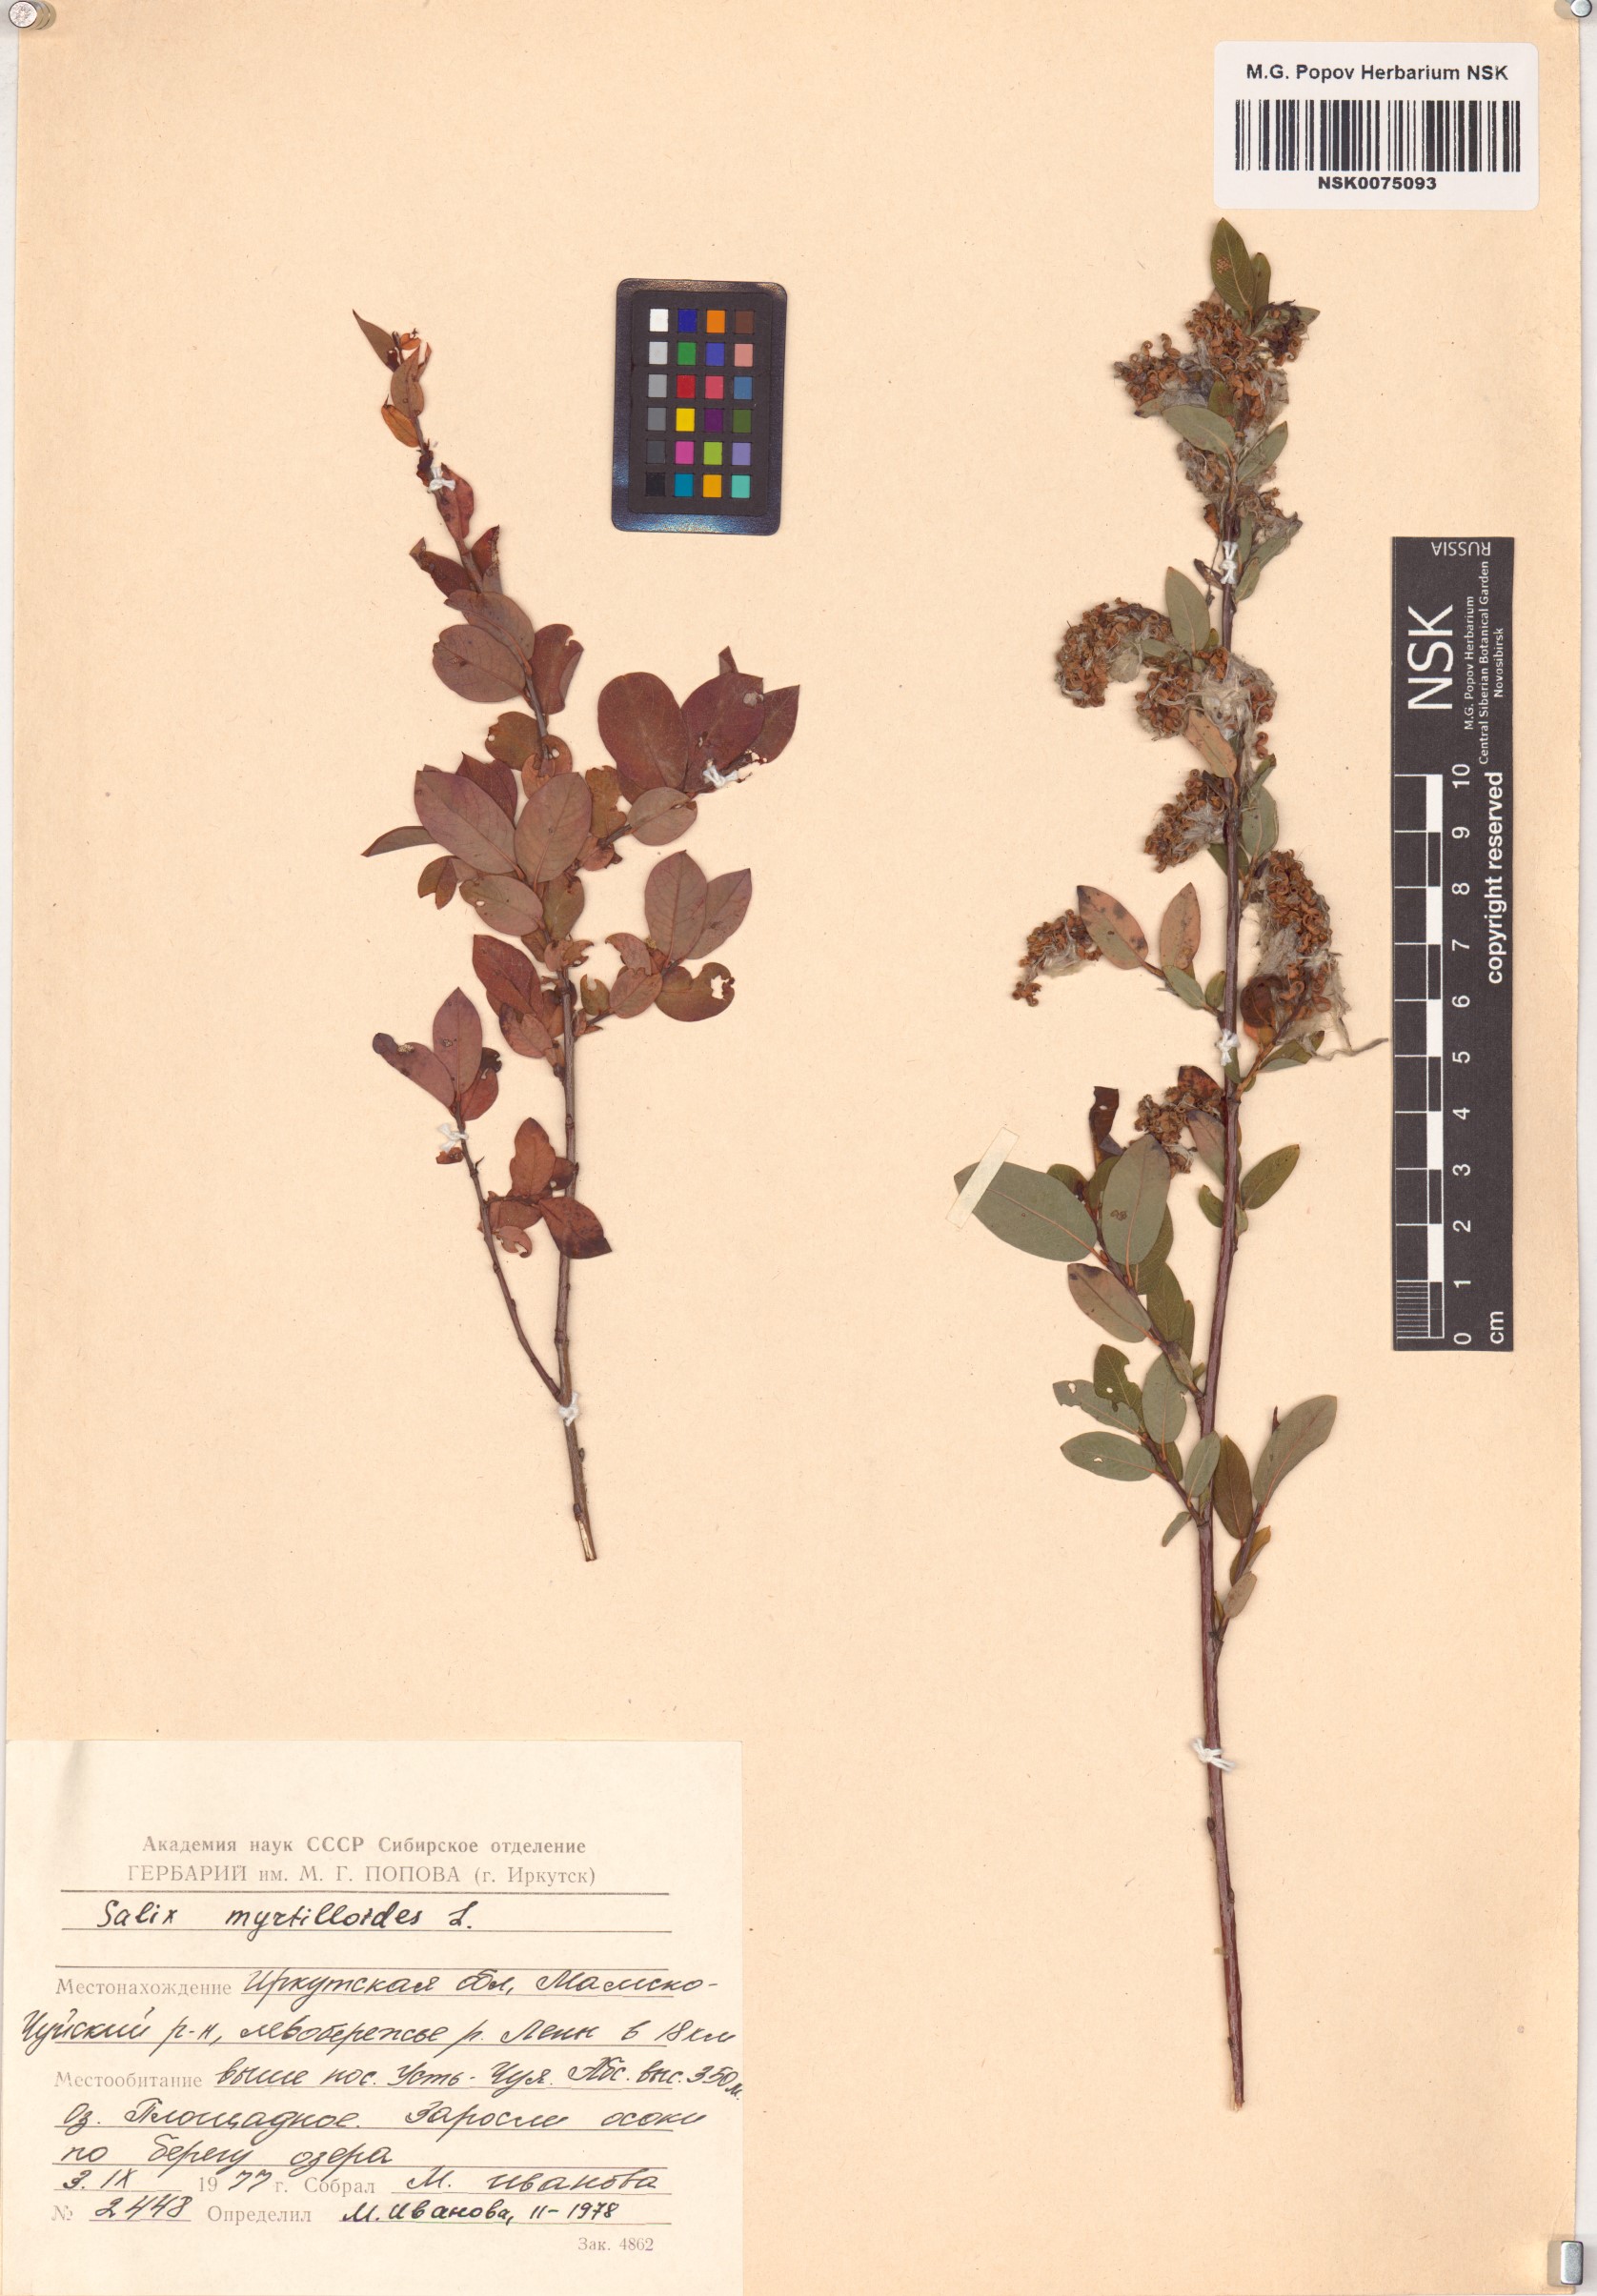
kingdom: Plantae
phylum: Tracheophyta
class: Magnoliopsida
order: Malpighiales
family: Salicaceae
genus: Salix
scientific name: Salix myrtilloides
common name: Myrtle-leaved willow
